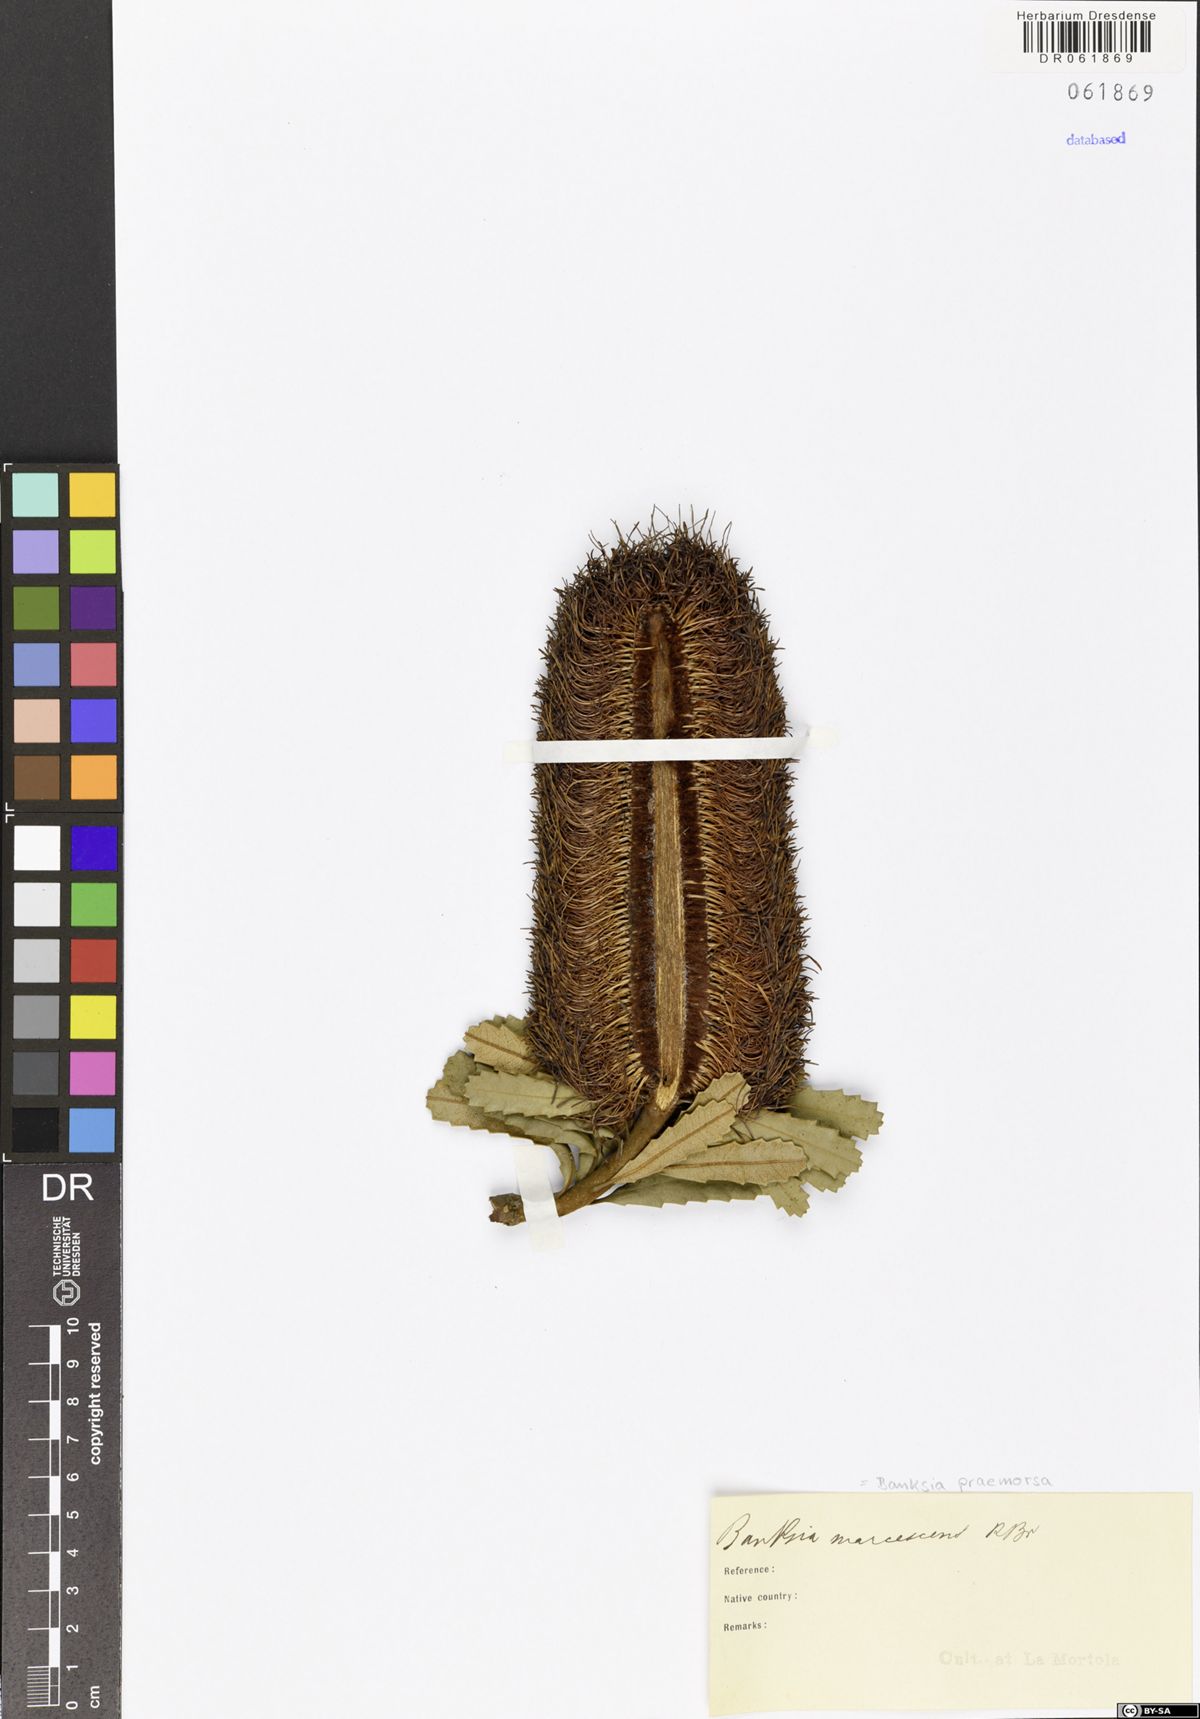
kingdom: Plantae
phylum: Tracheophyta
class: Magnoliopsida
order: Proteales
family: Proteaceae
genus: Banksia
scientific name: Banksia praemorsa
